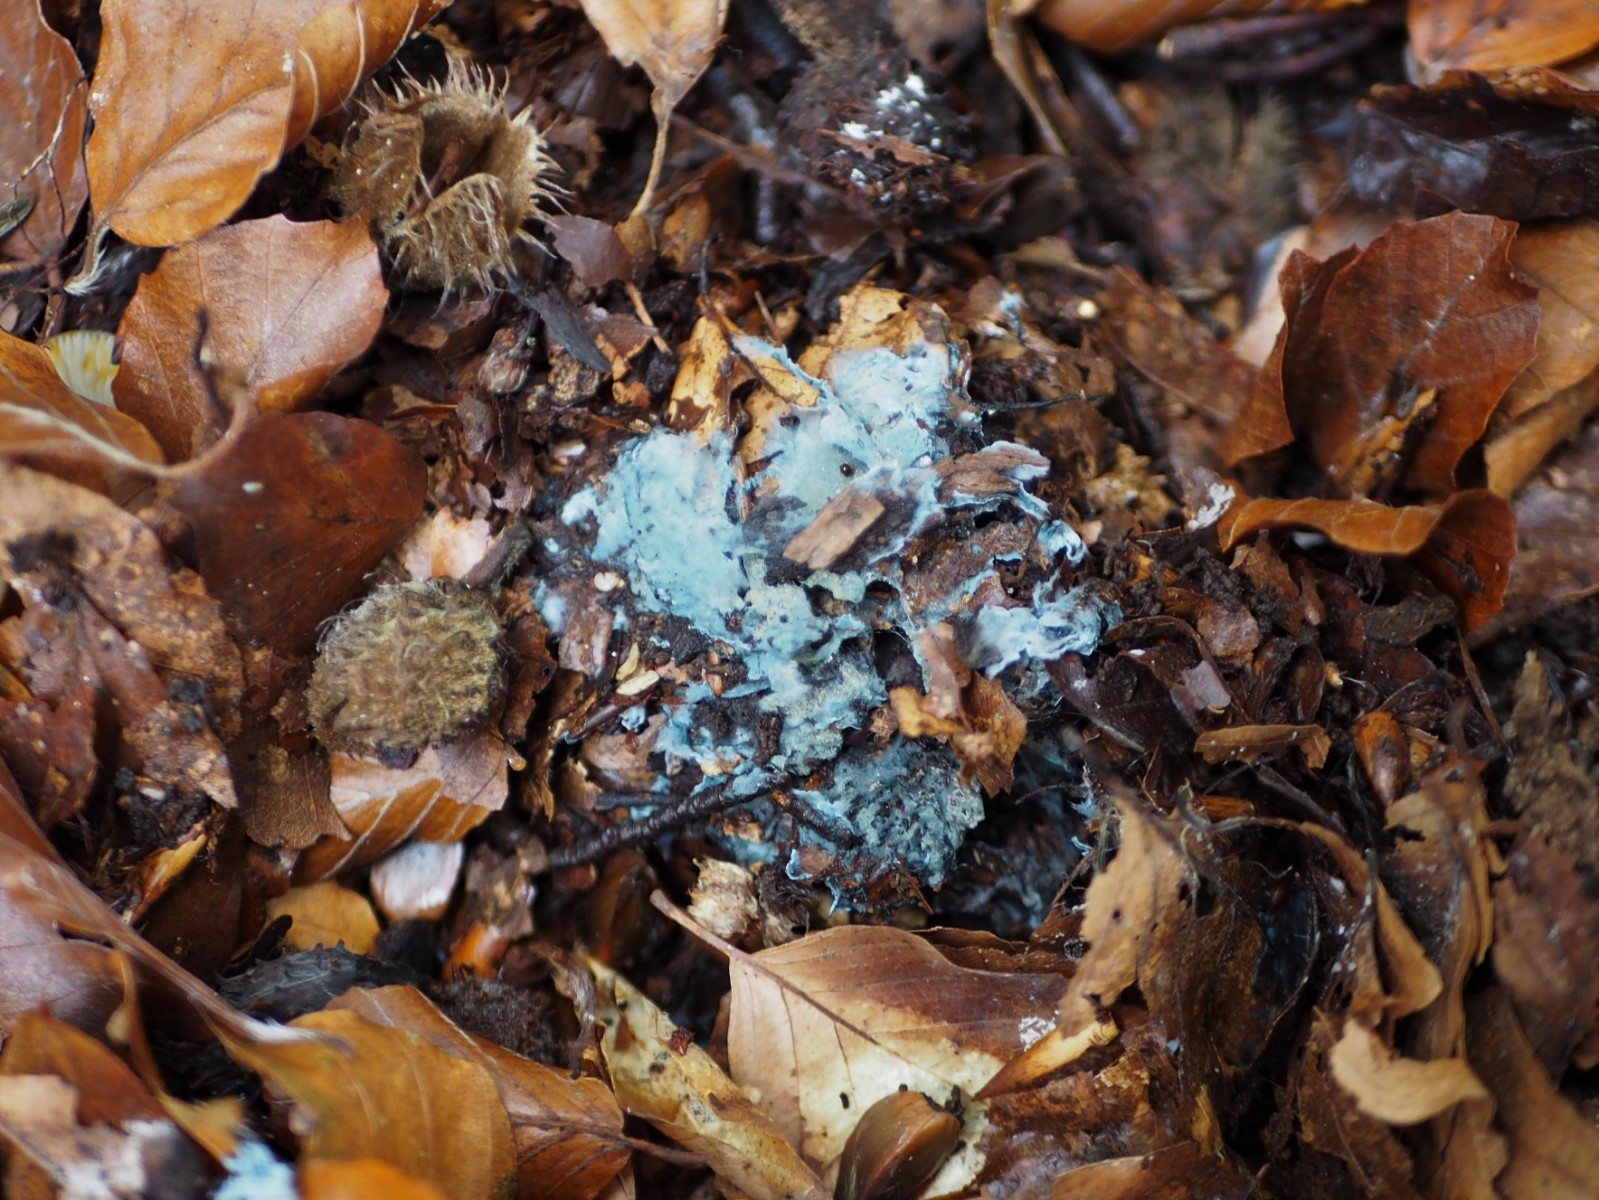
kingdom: Fungi
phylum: Basidiomycota
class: Agaricomycetes
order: Atheliales
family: Atheliaceae
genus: Byssocorticium
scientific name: Byssocorticium atrovirens
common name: blå førnehinde
